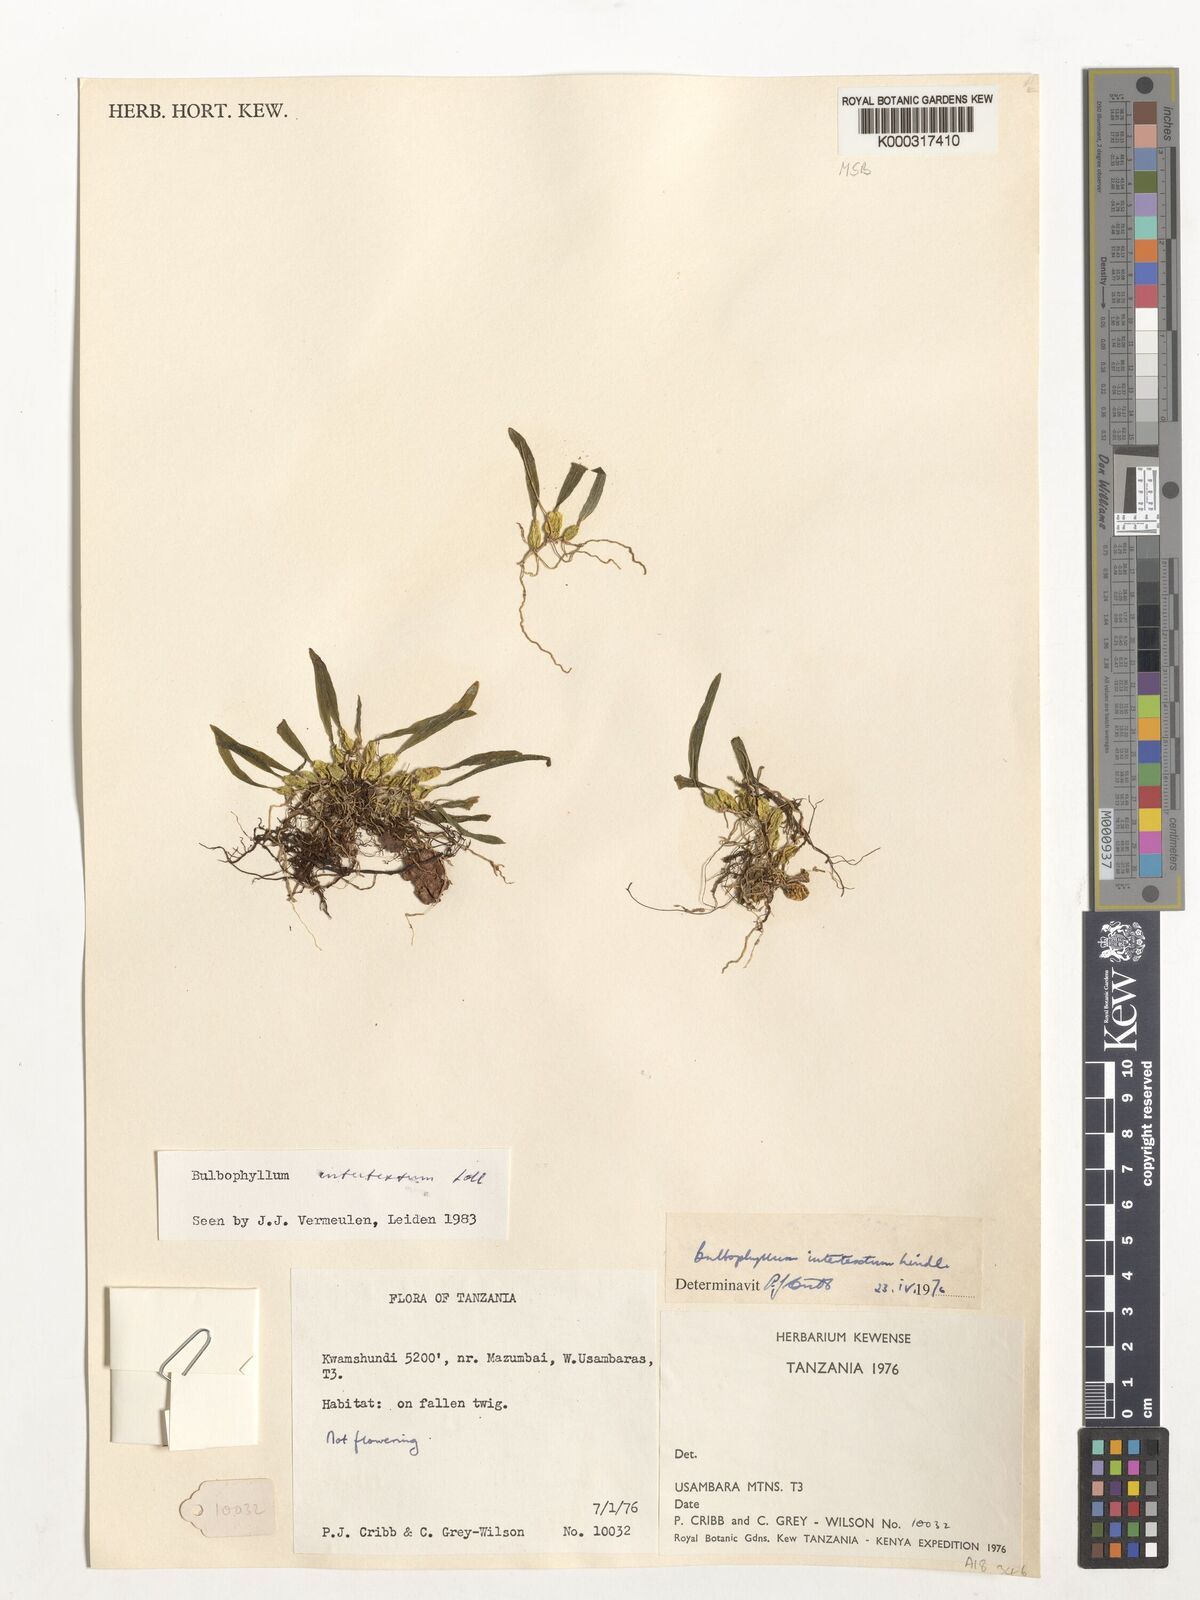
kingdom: Plantae
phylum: Tracheophyta
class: Liliopsida
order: Asparagales
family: Orchidaceae
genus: Bulbophyllum
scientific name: Bulbophyllum intertextum
